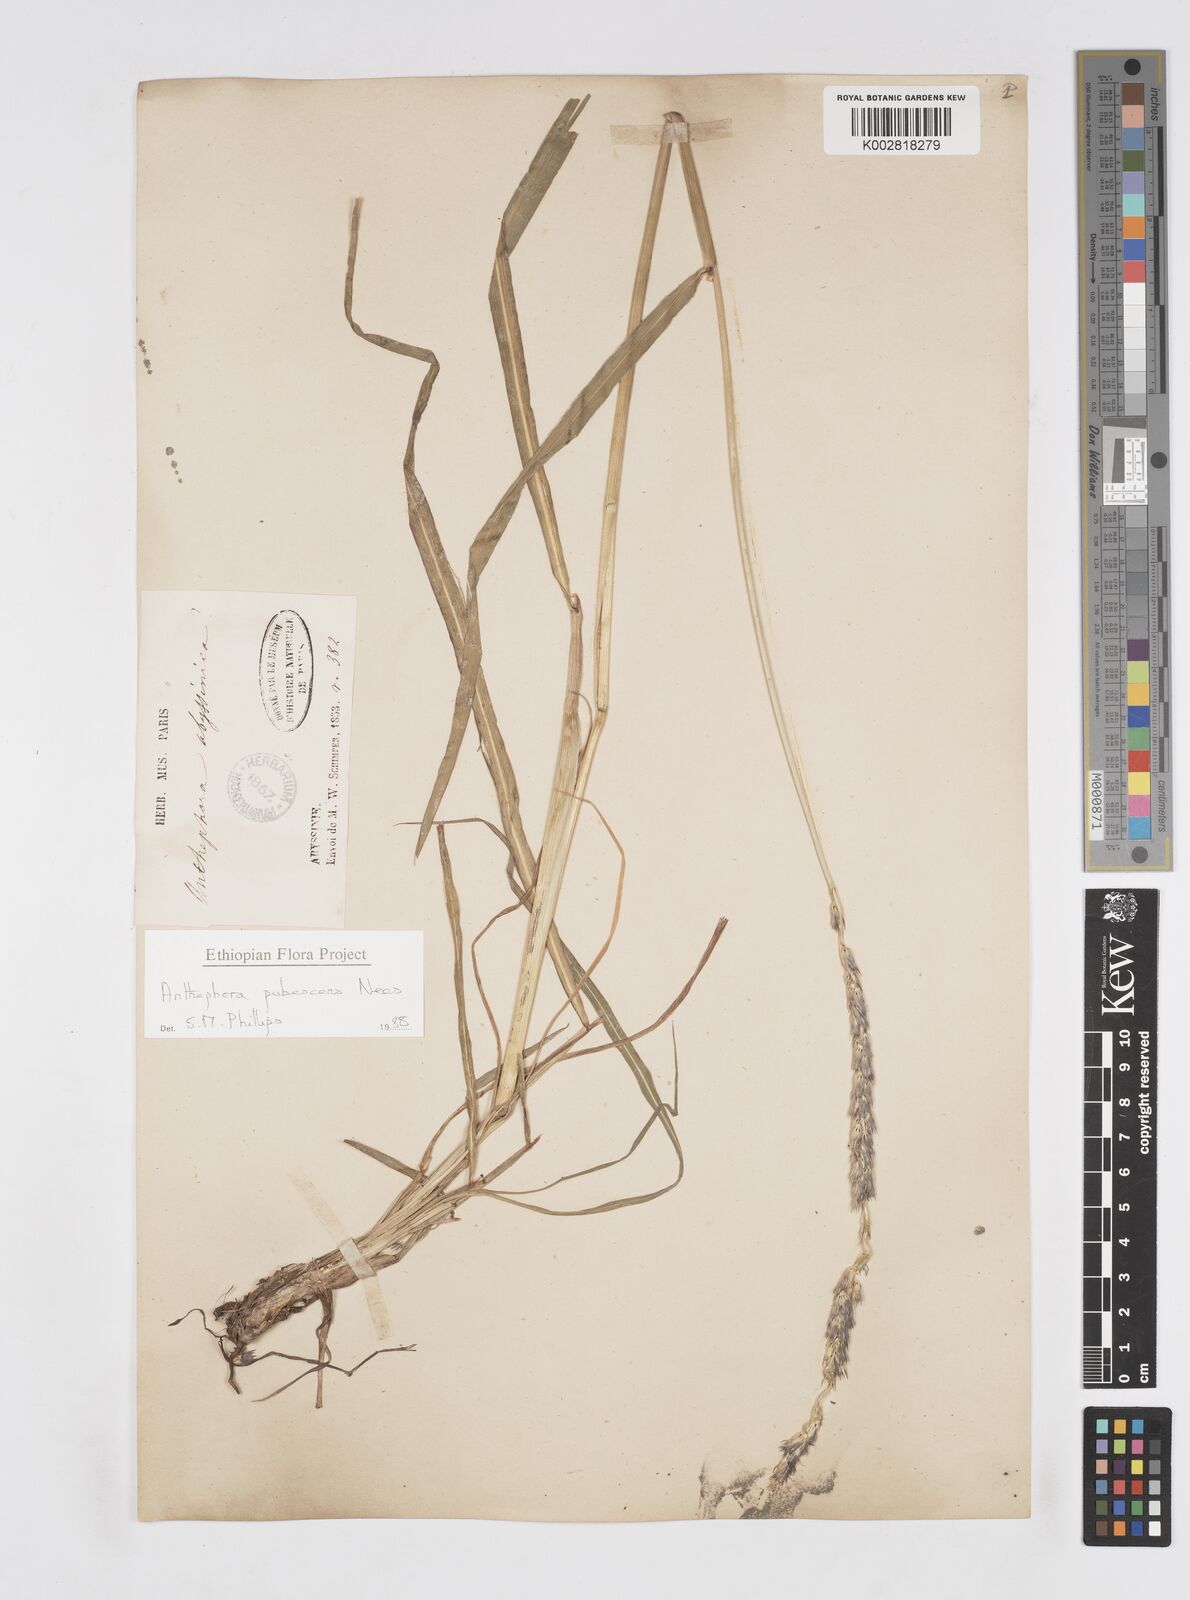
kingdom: Plantae
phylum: Tracheophyta
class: Liliopsida
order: Poales
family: Poaceae
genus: Anthephora
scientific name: Anthephora pubescens
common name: Wool grass
